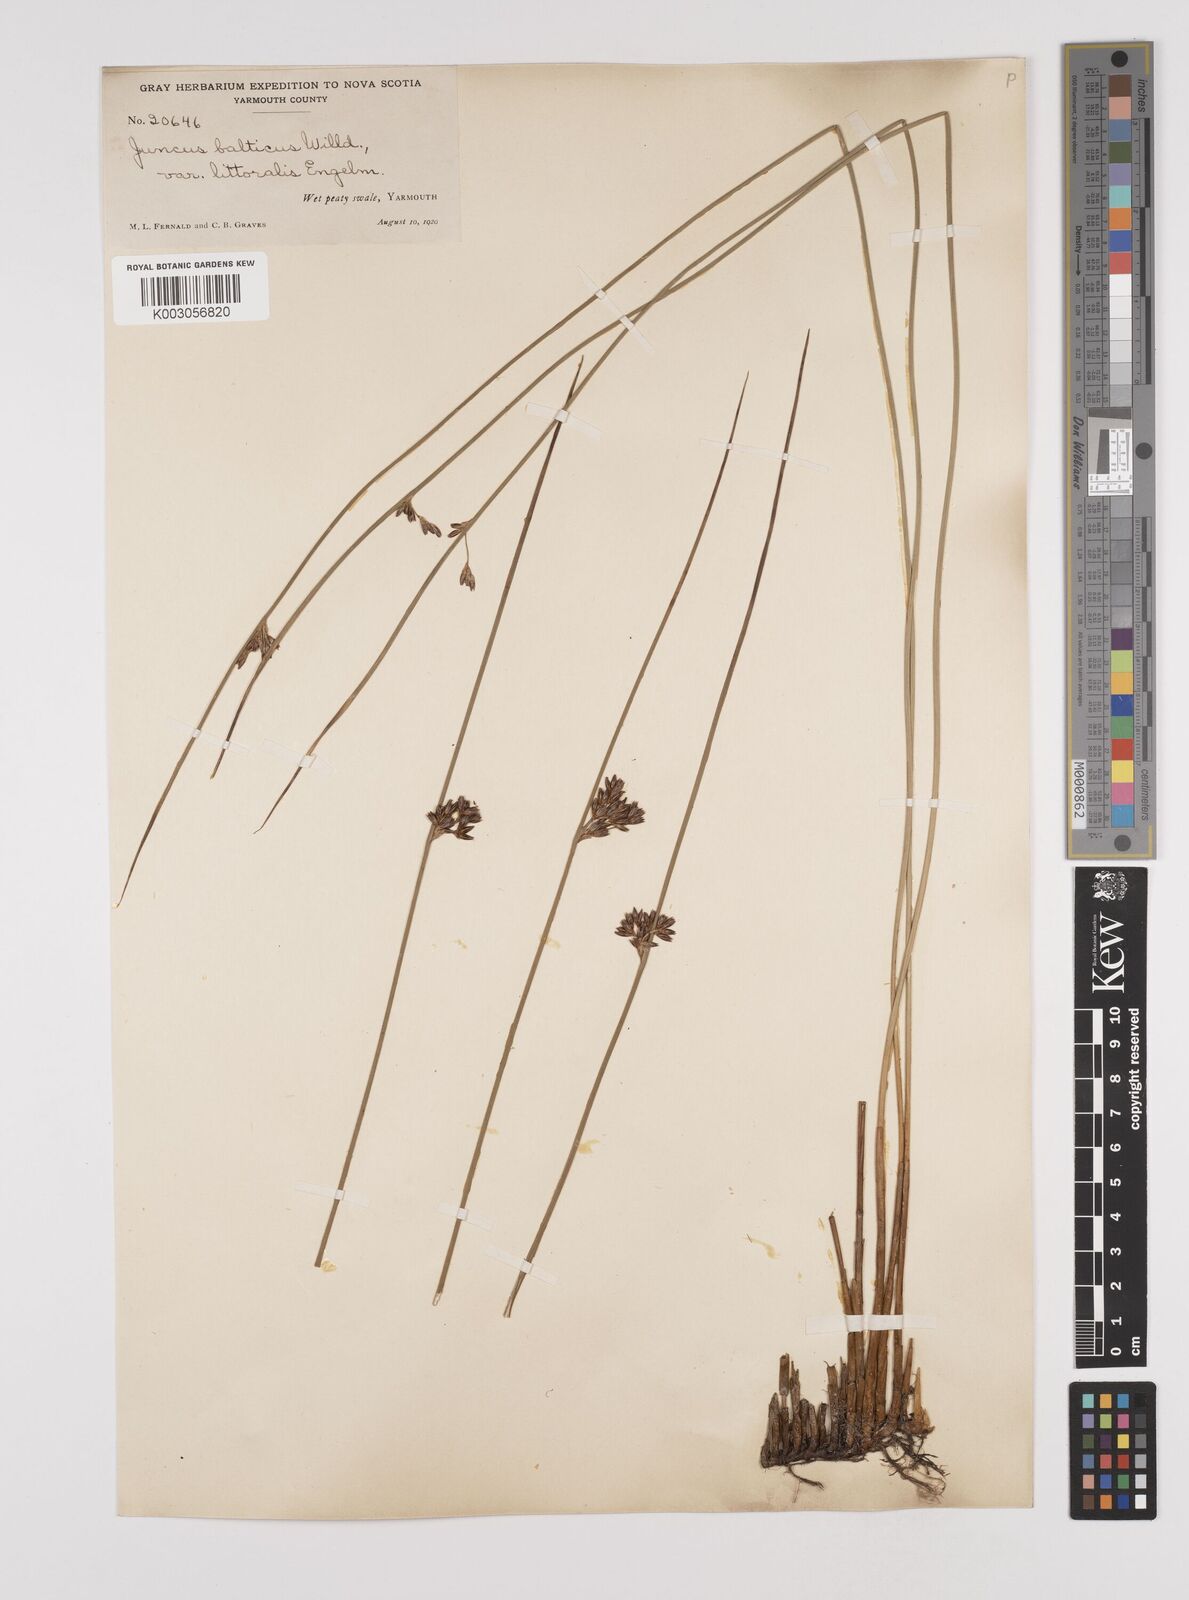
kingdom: Plantae
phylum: Tracheophyta
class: Liliopsida
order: Poales
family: Juncaceae
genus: Juncus
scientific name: Juncus balticus
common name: Baltic rush
